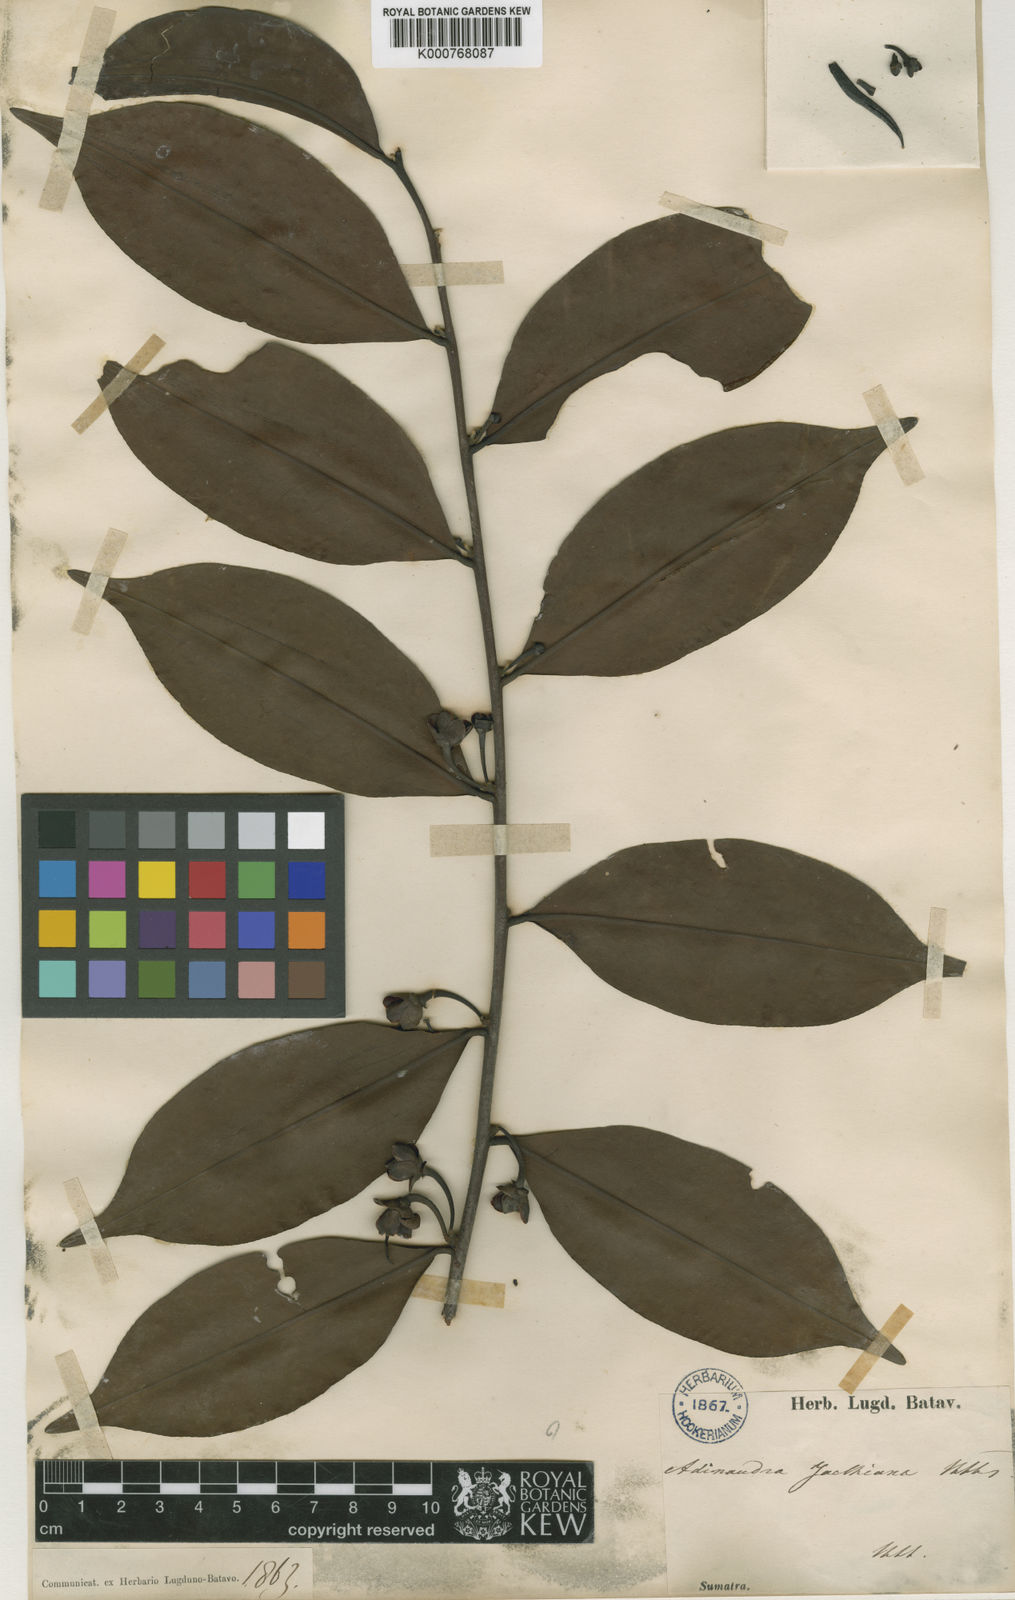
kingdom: Plantae
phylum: Tracheophyta
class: Magnoliopsida
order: Ericales
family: Pentaphylacaceae
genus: Adinandra
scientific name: Adinandra dumosa
